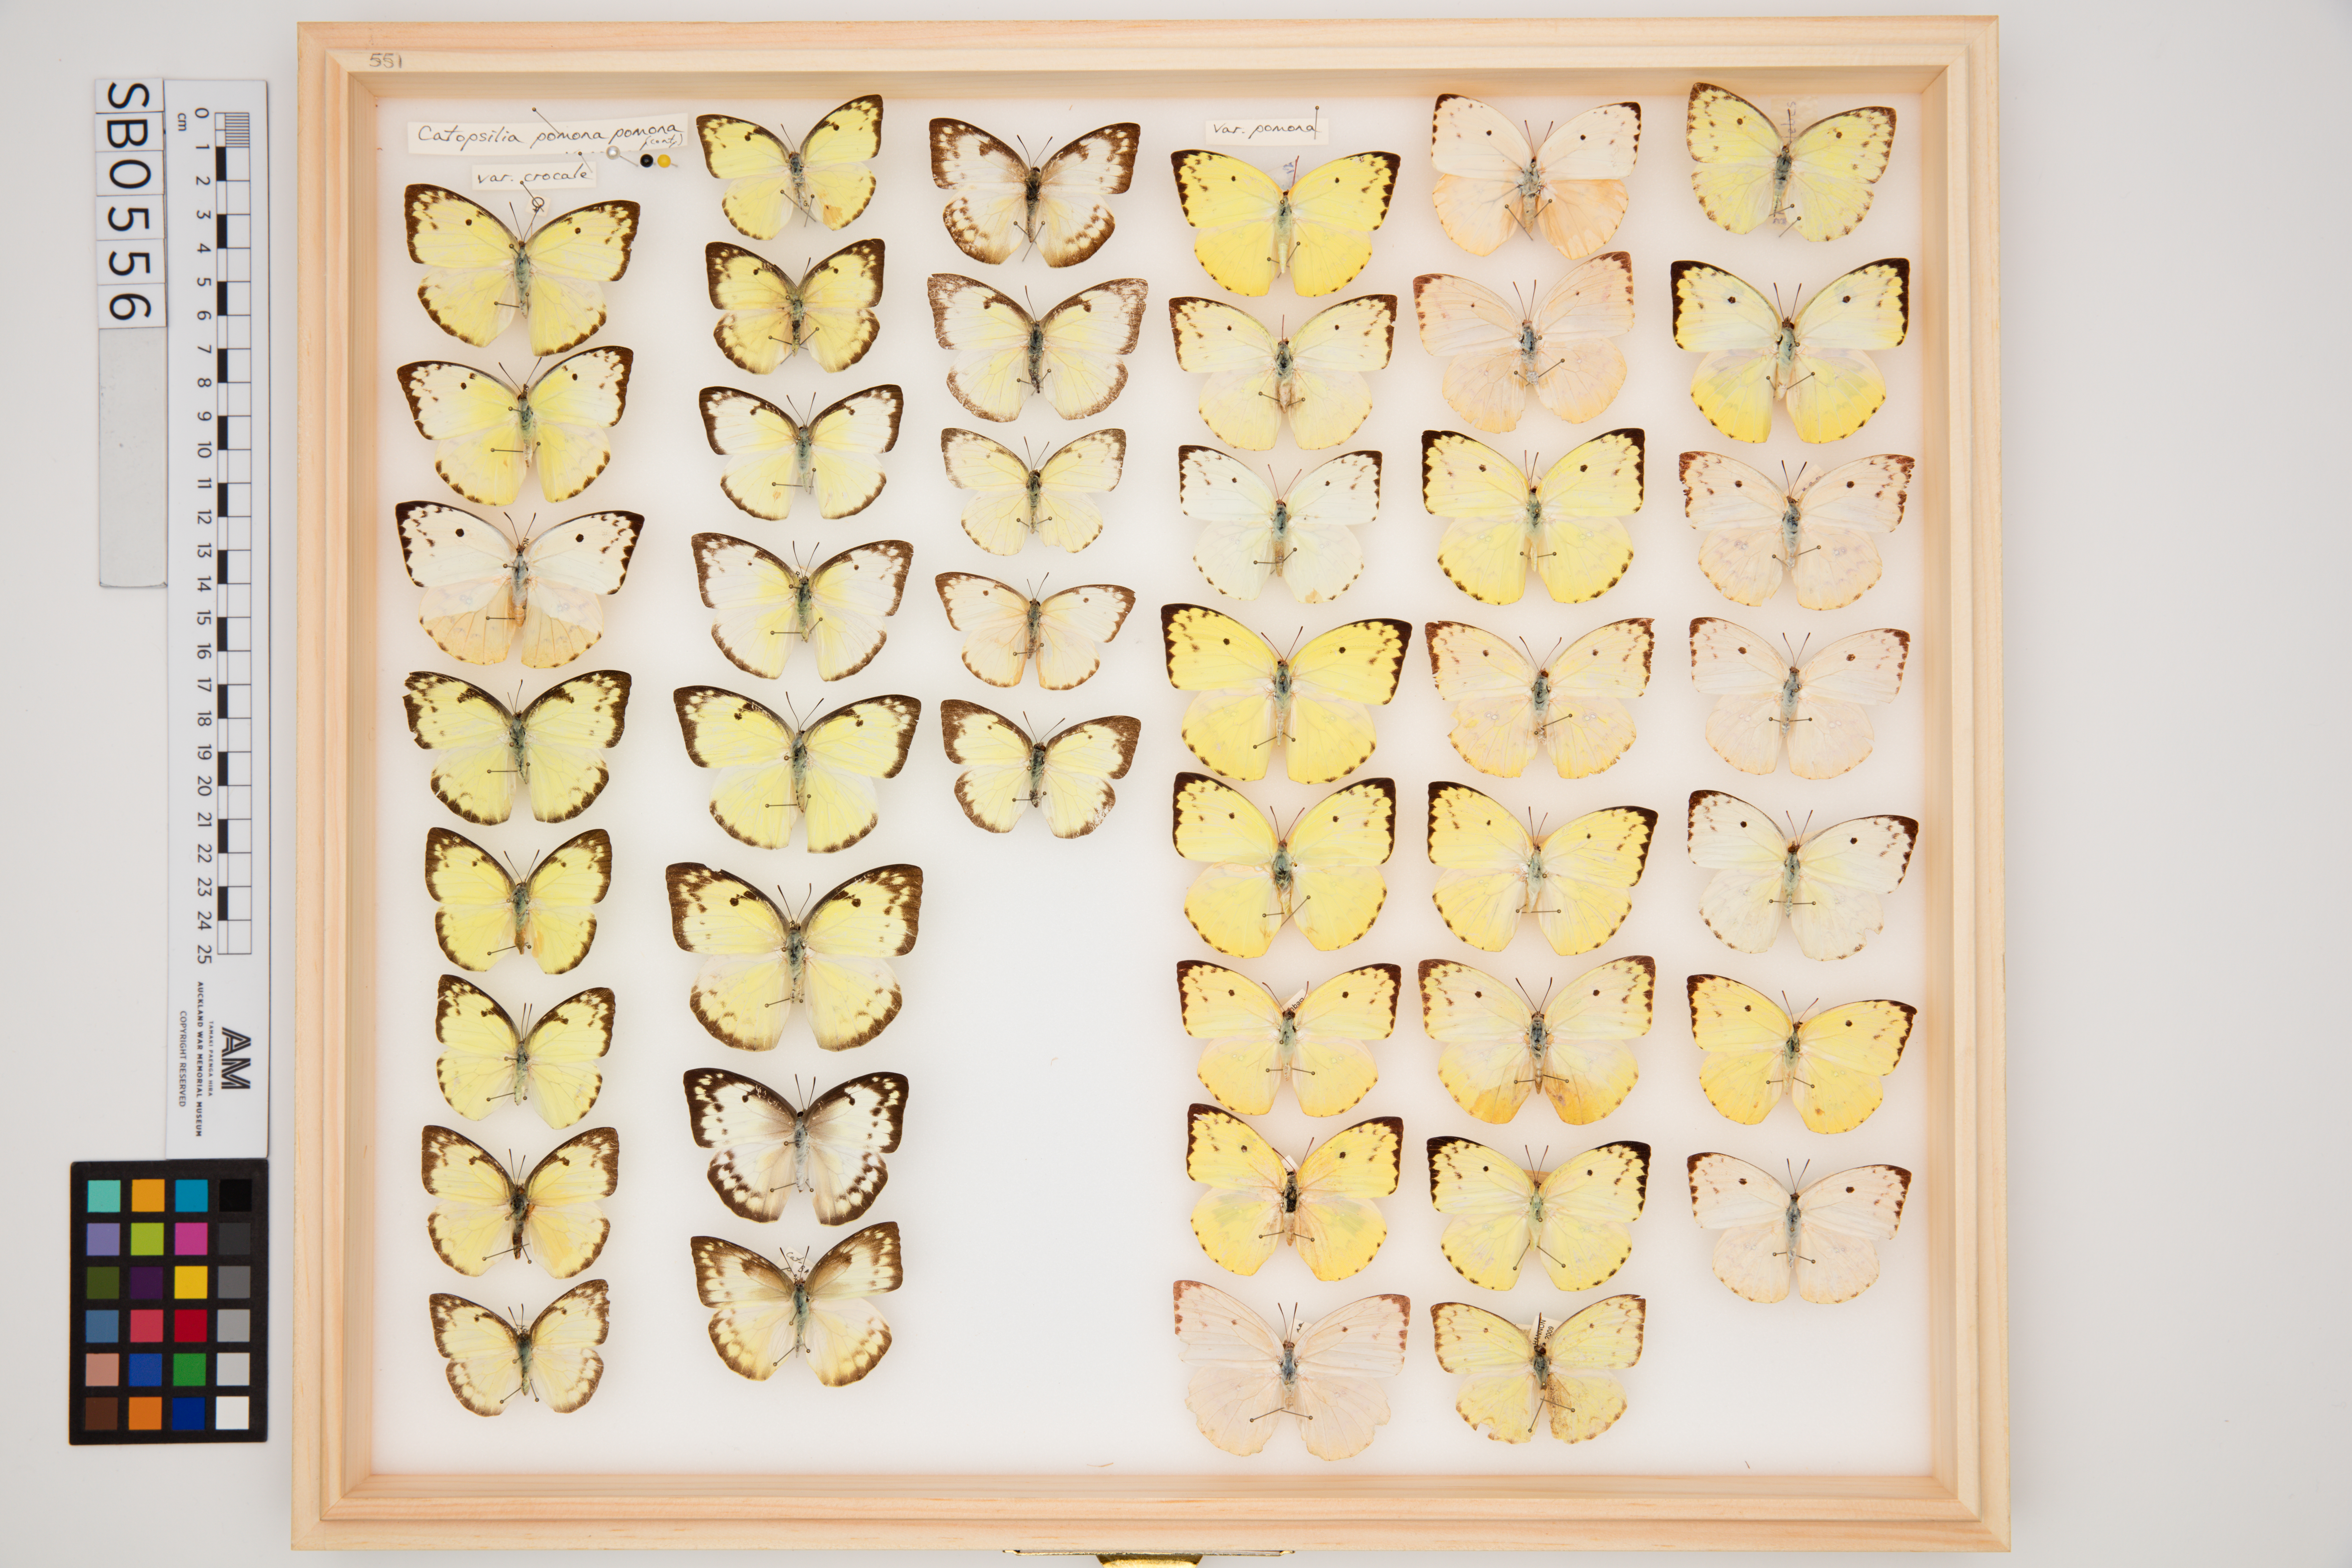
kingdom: Animalia
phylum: Arthropoda
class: Insecta
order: Lepidoptera
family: Pieridae
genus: Catopsilia
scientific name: Catopsilia pomona
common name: Common emigrant
